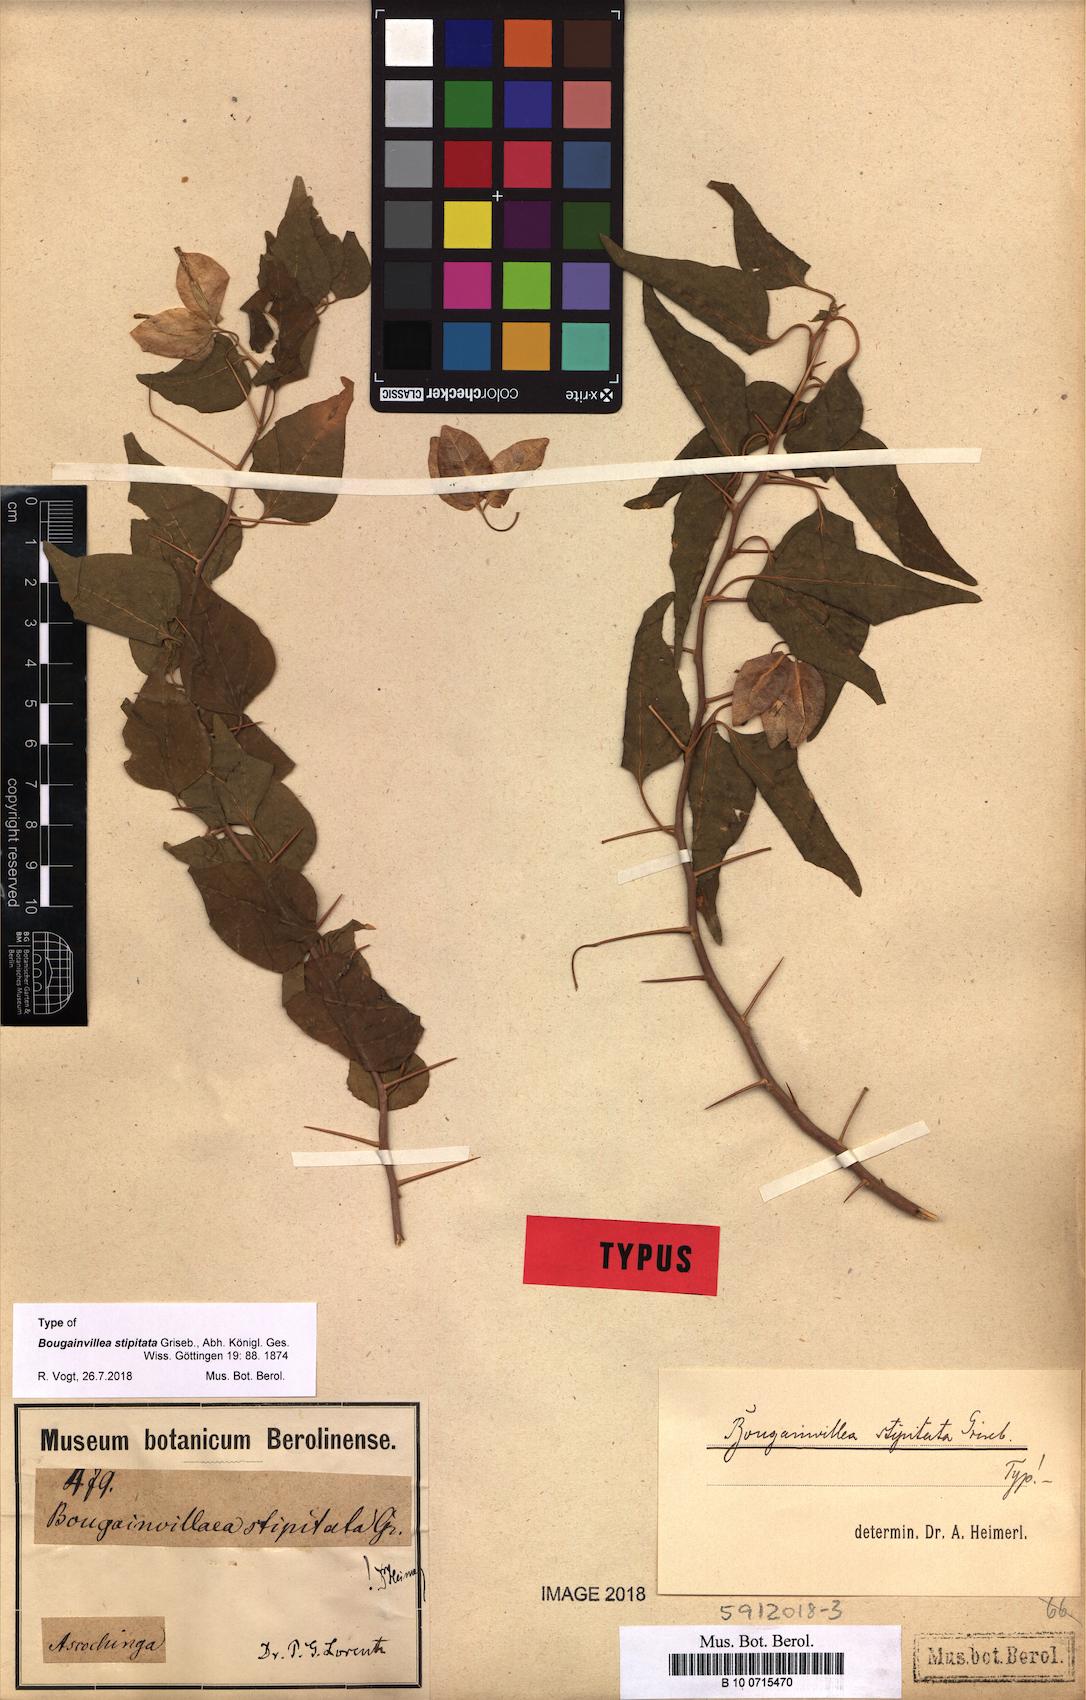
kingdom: Plantae
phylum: Tracheophyta
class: Magnoliopsida
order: Caryophyllales
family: Nyctaginaceae
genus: Bougainvillea
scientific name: Bougainvillea stipitata
